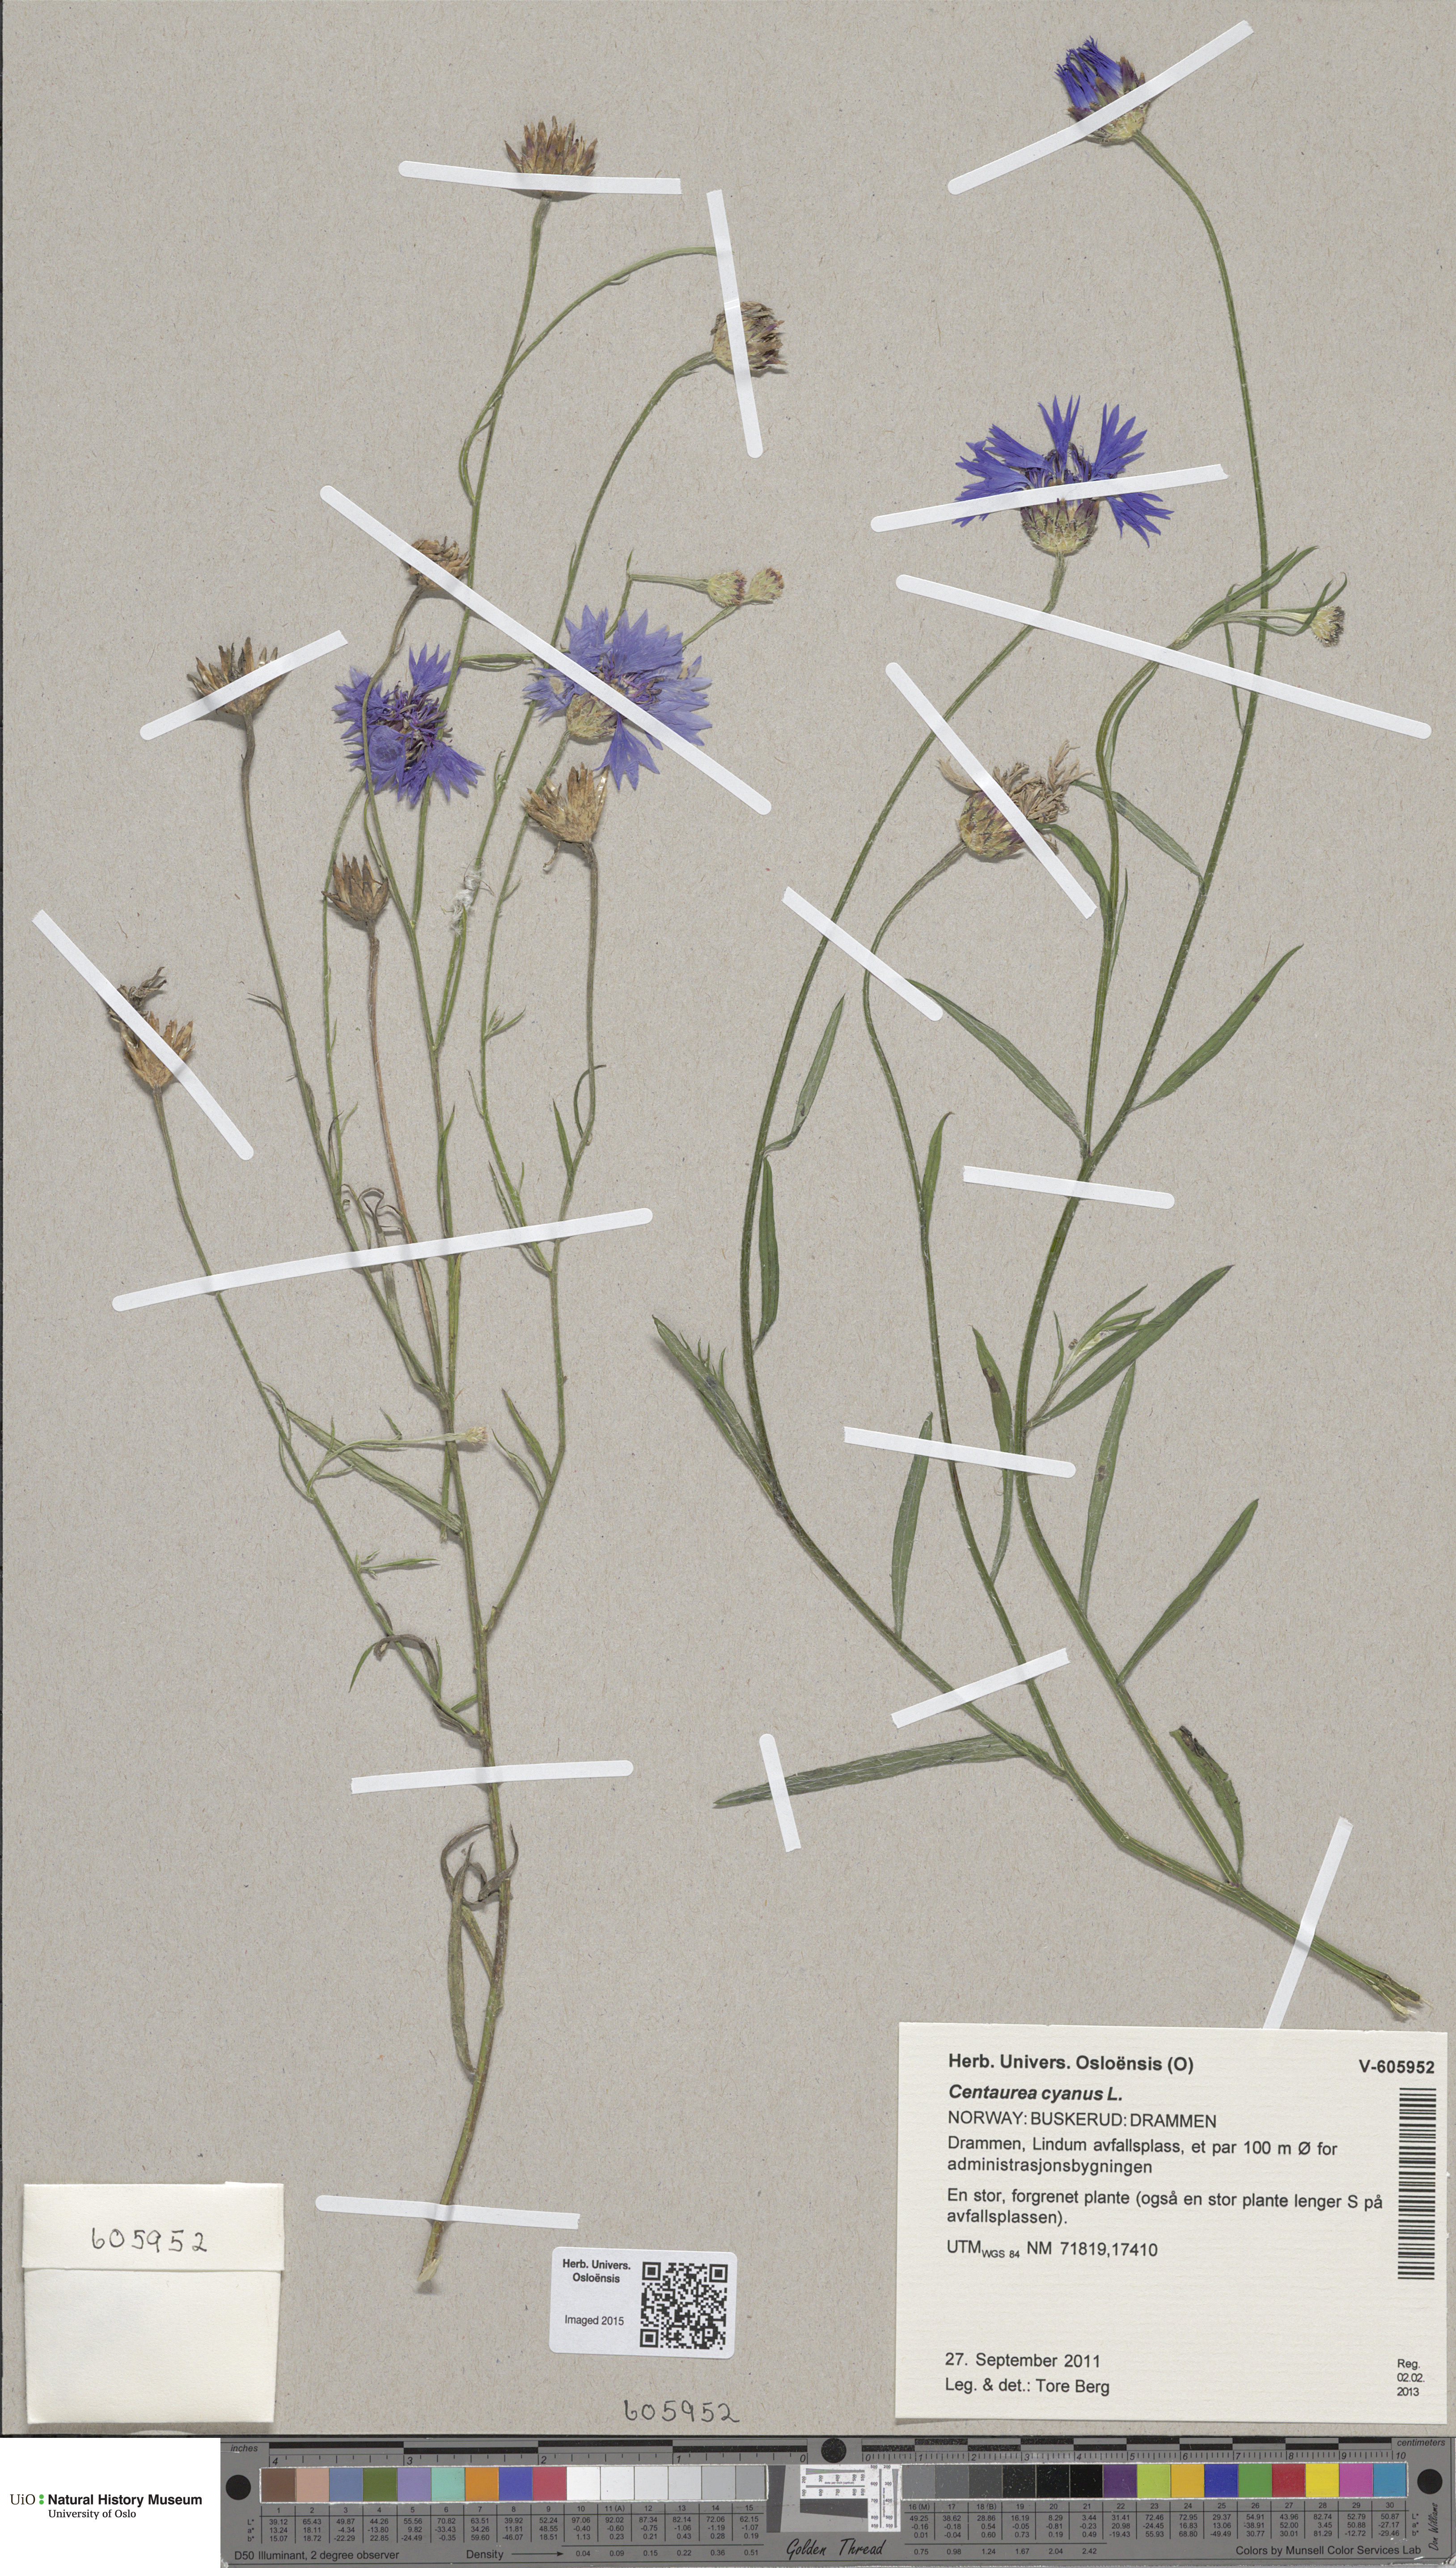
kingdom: Plantae
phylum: Tracheophyta
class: Magnoliopsida
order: Asterales
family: Asteraceae
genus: Centaurea
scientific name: Centaurea cyanus
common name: Cornflower
